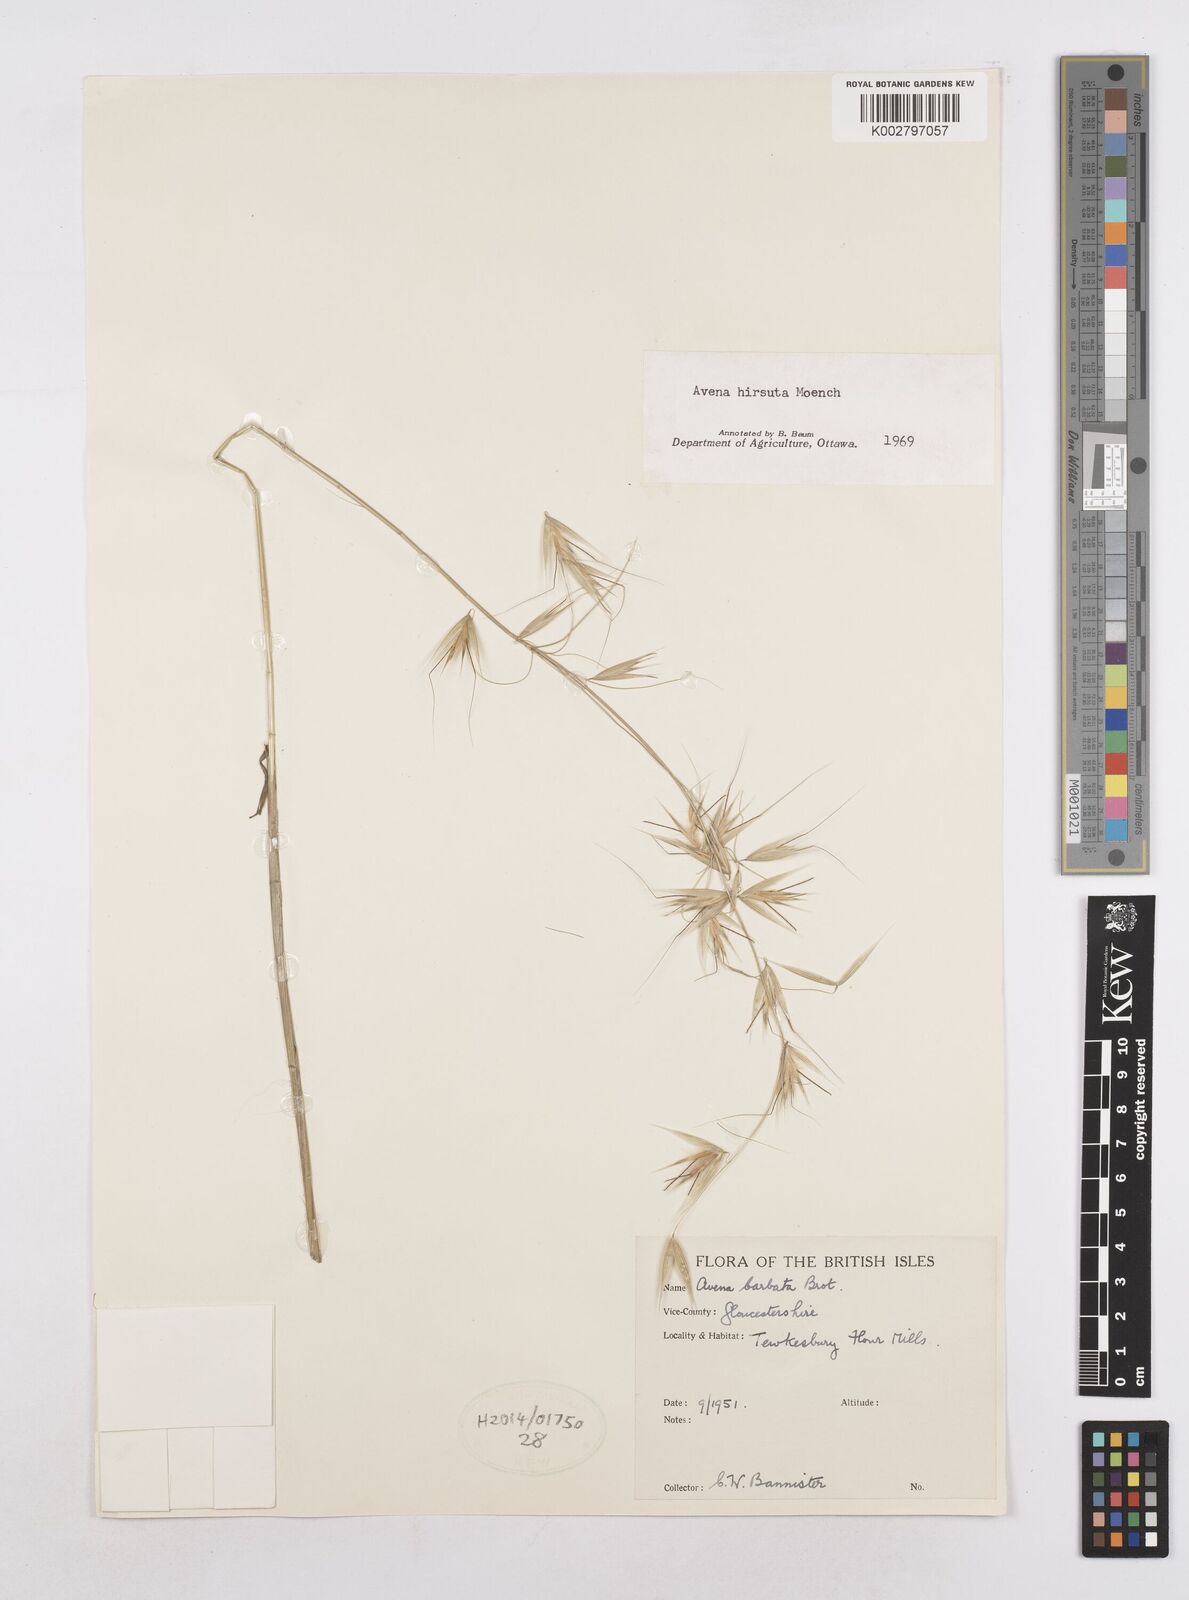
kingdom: Plantae
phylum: Tracheophyta
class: Liliopsida
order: Poales
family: Poaceae
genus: Avena
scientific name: Avena
